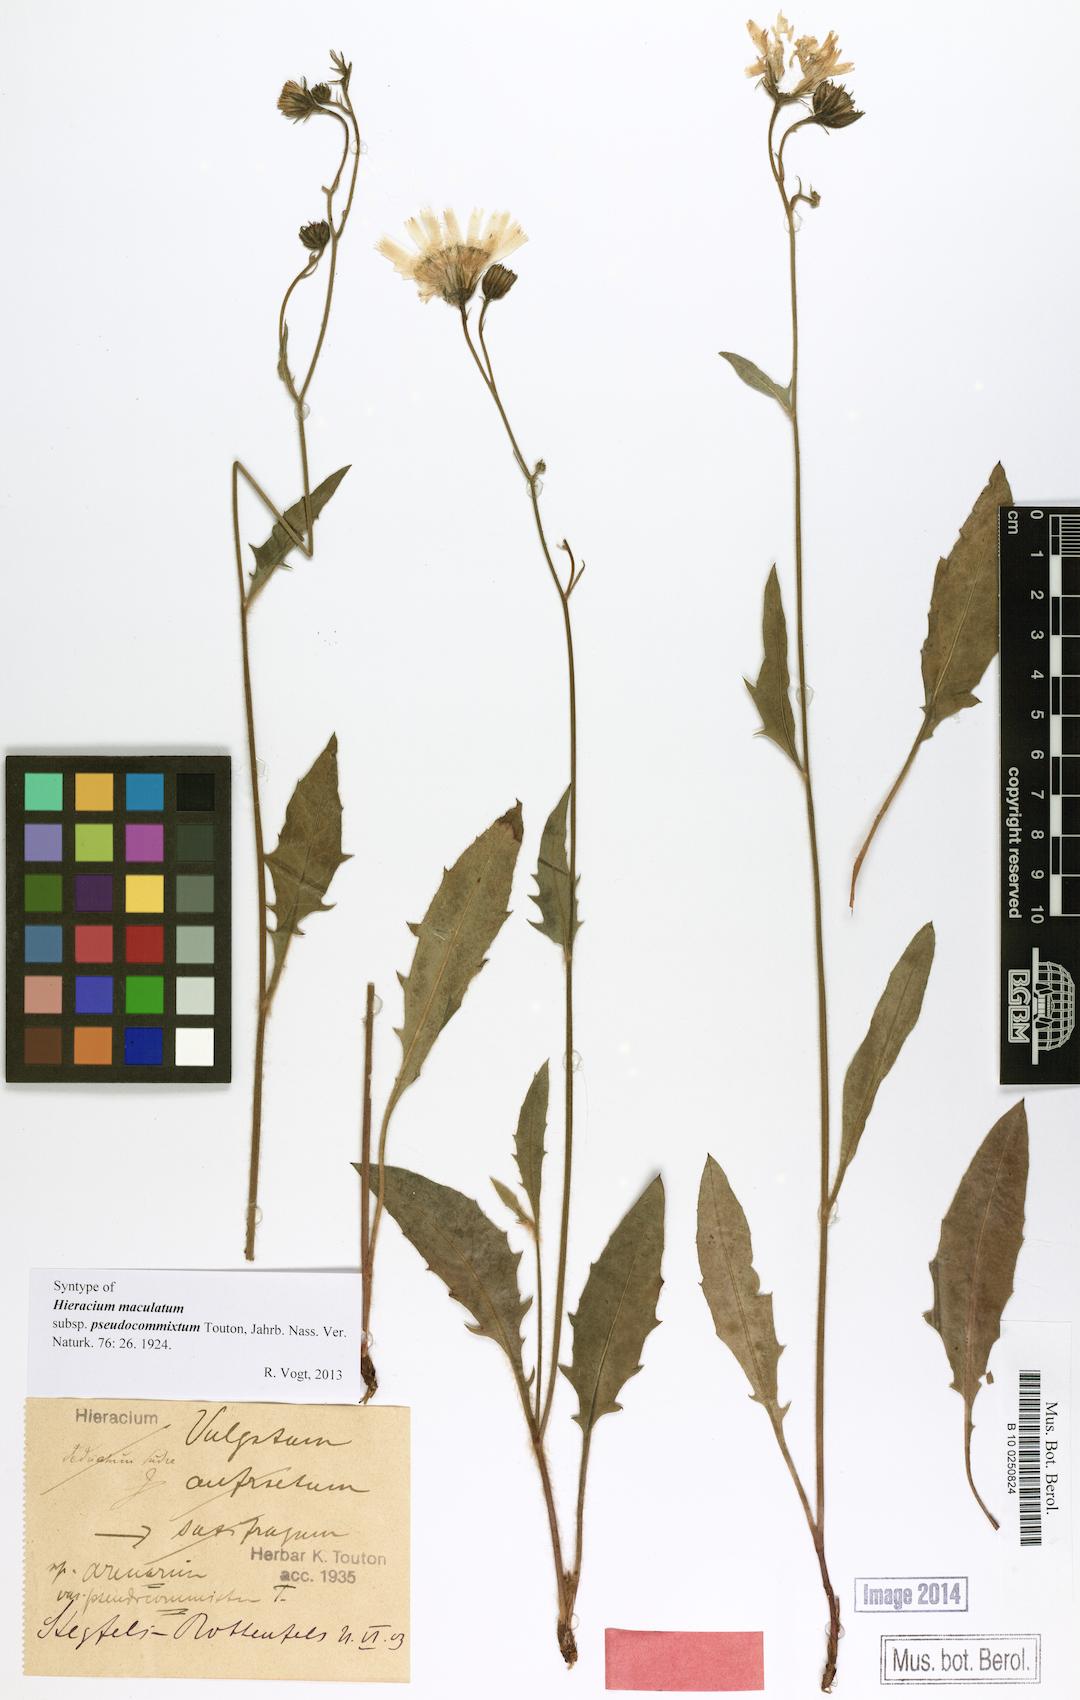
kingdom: Plantae
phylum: Tracheophyta
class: Magnoliopsida
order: Asterales
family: Asteraceae
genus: Hieracium
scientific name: Hieracium maculatum
